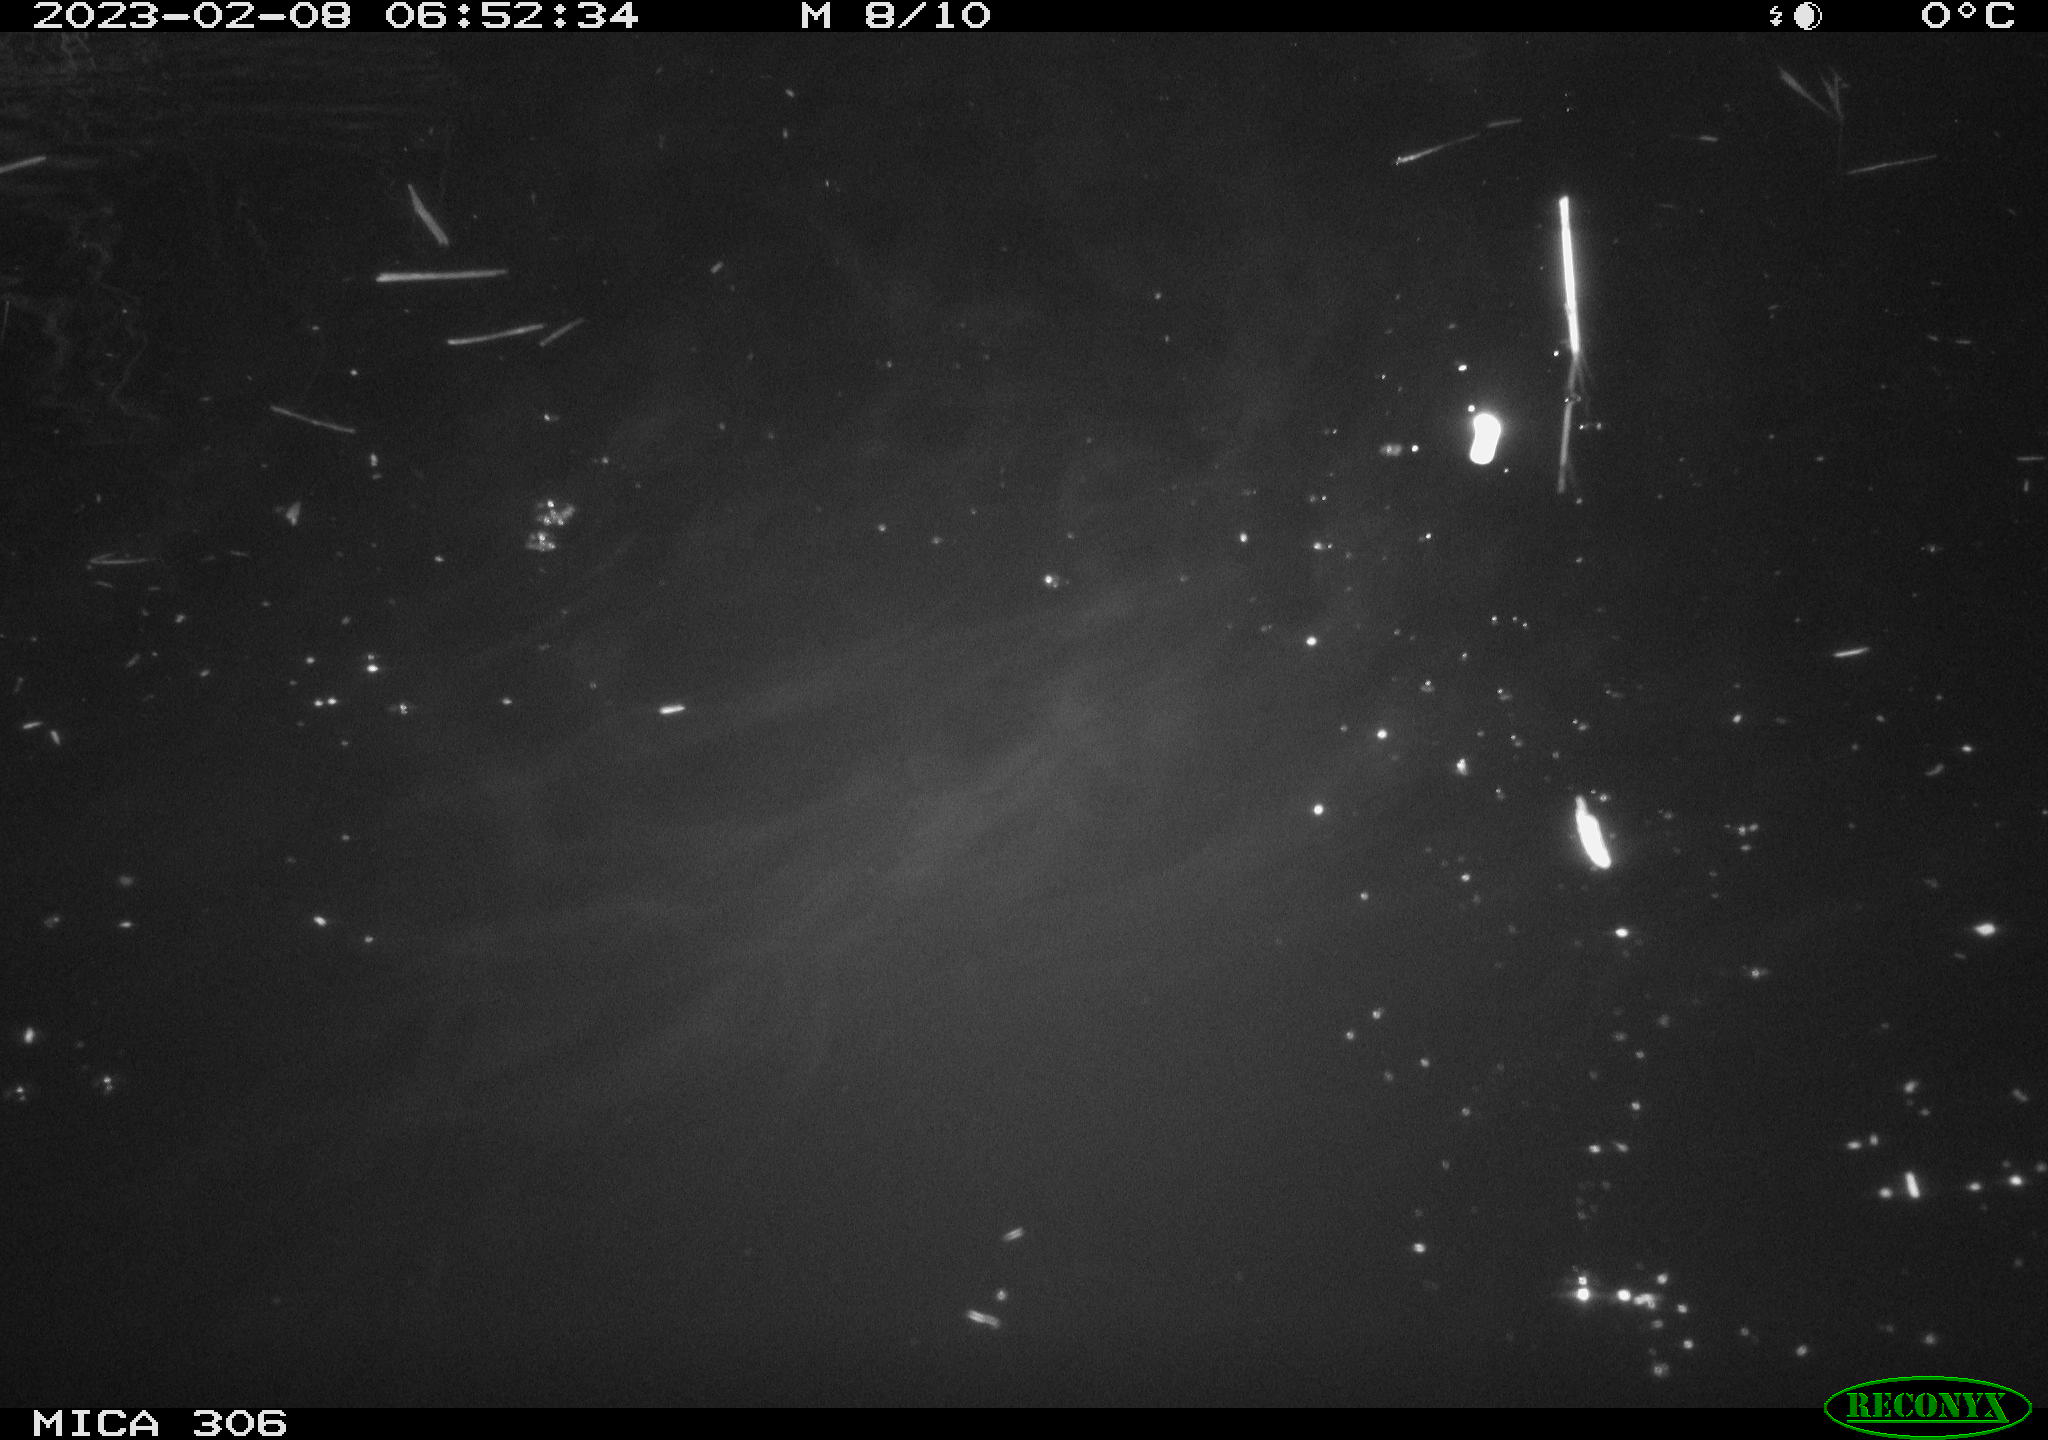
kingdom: Animalia
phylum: Chordata
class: Aves
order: Anseriformes
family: Anatidae
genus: Anas
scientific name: Anas
